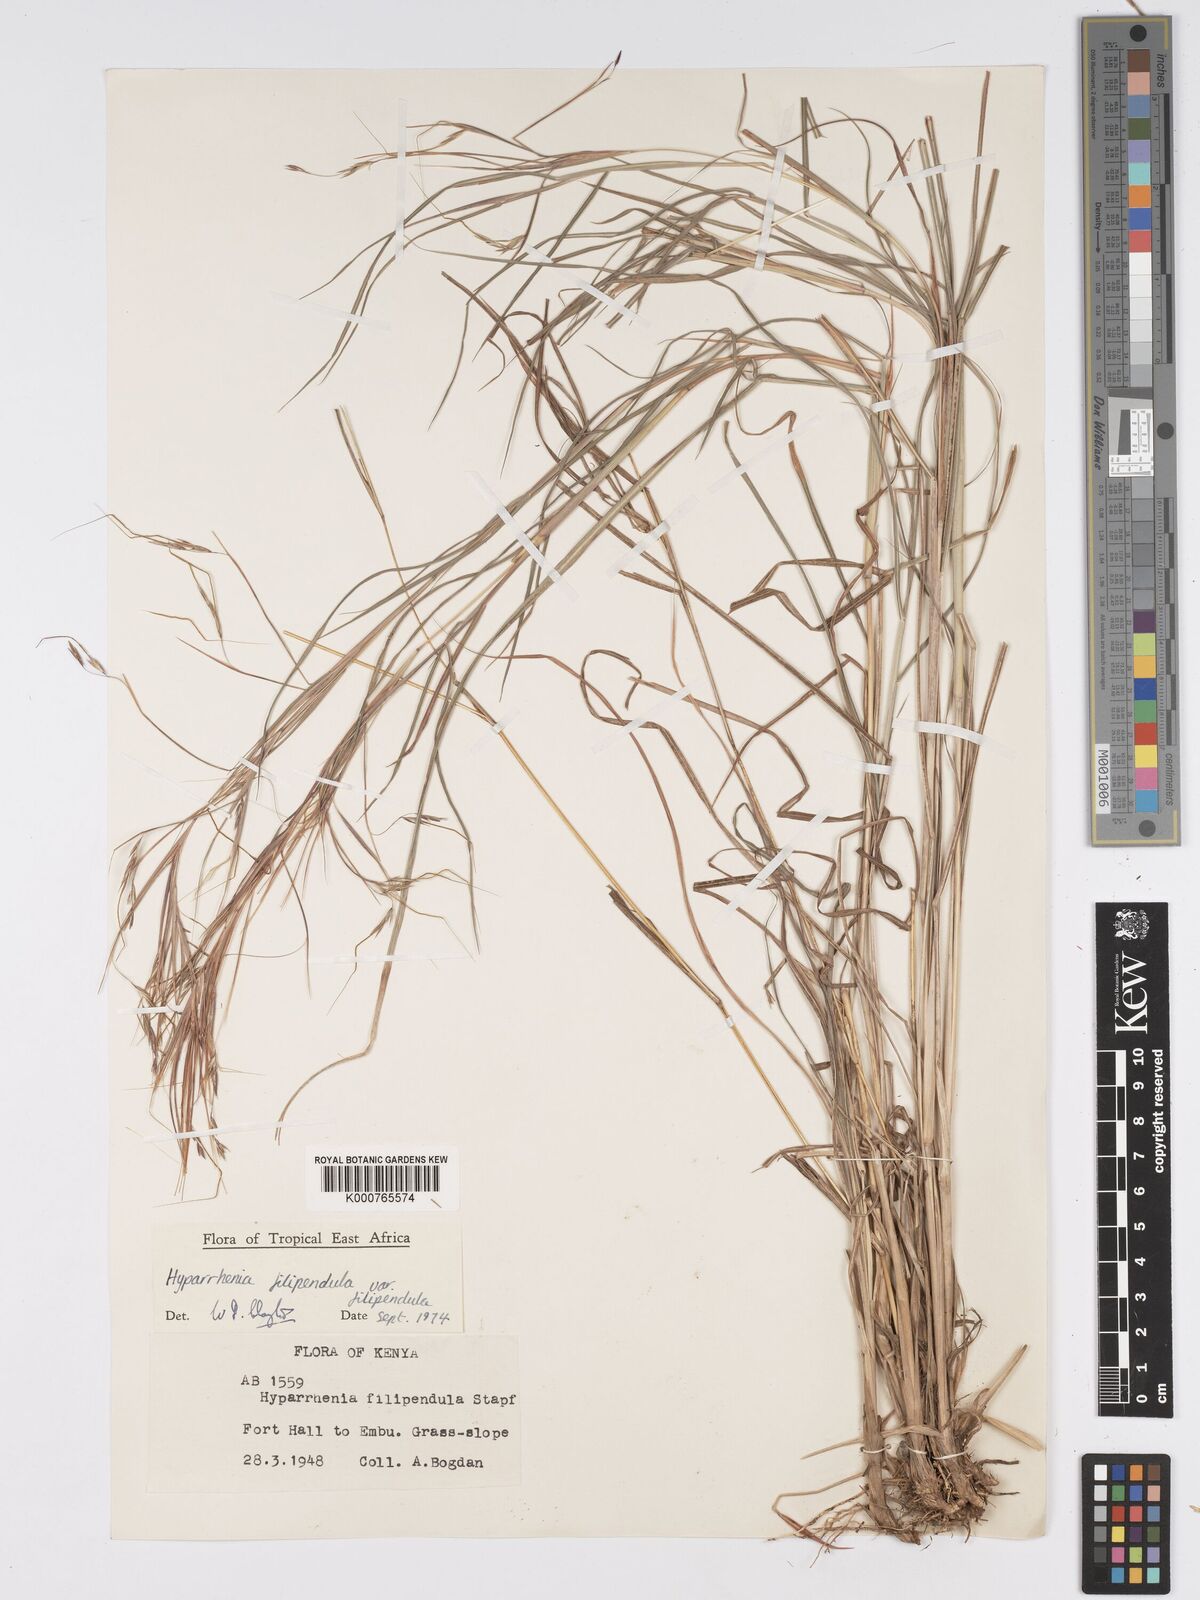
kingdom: Plantae
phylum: Tracheophyta
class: Liliopsida
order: Poales
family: Poaceae
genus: Hyparrhenia
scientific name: Hyparrhenia filipendula
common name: Tambookie grass
